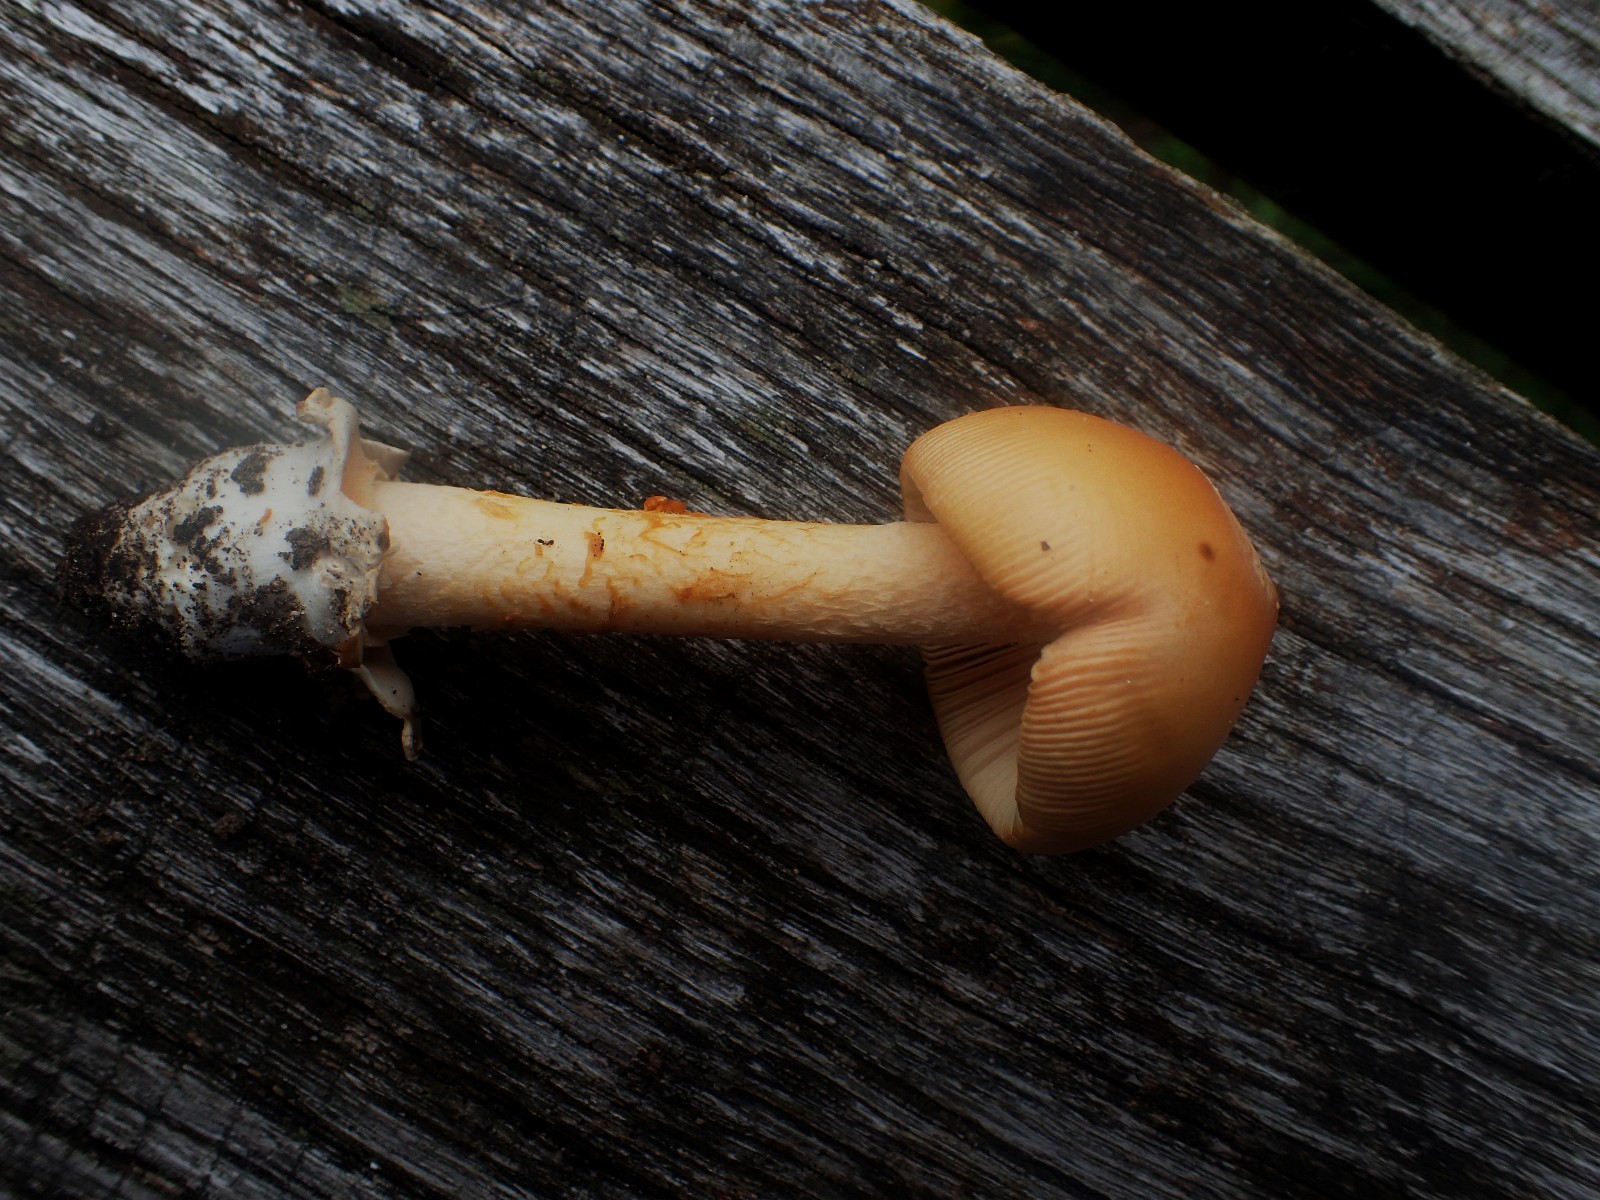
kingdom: Fungi
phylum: Basidiomycota
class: Agaricomycetes
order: Agaricales
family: Amanitaceae
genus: Amanita
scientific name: Amanita crocea
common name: gylden kam-fluesvamp
